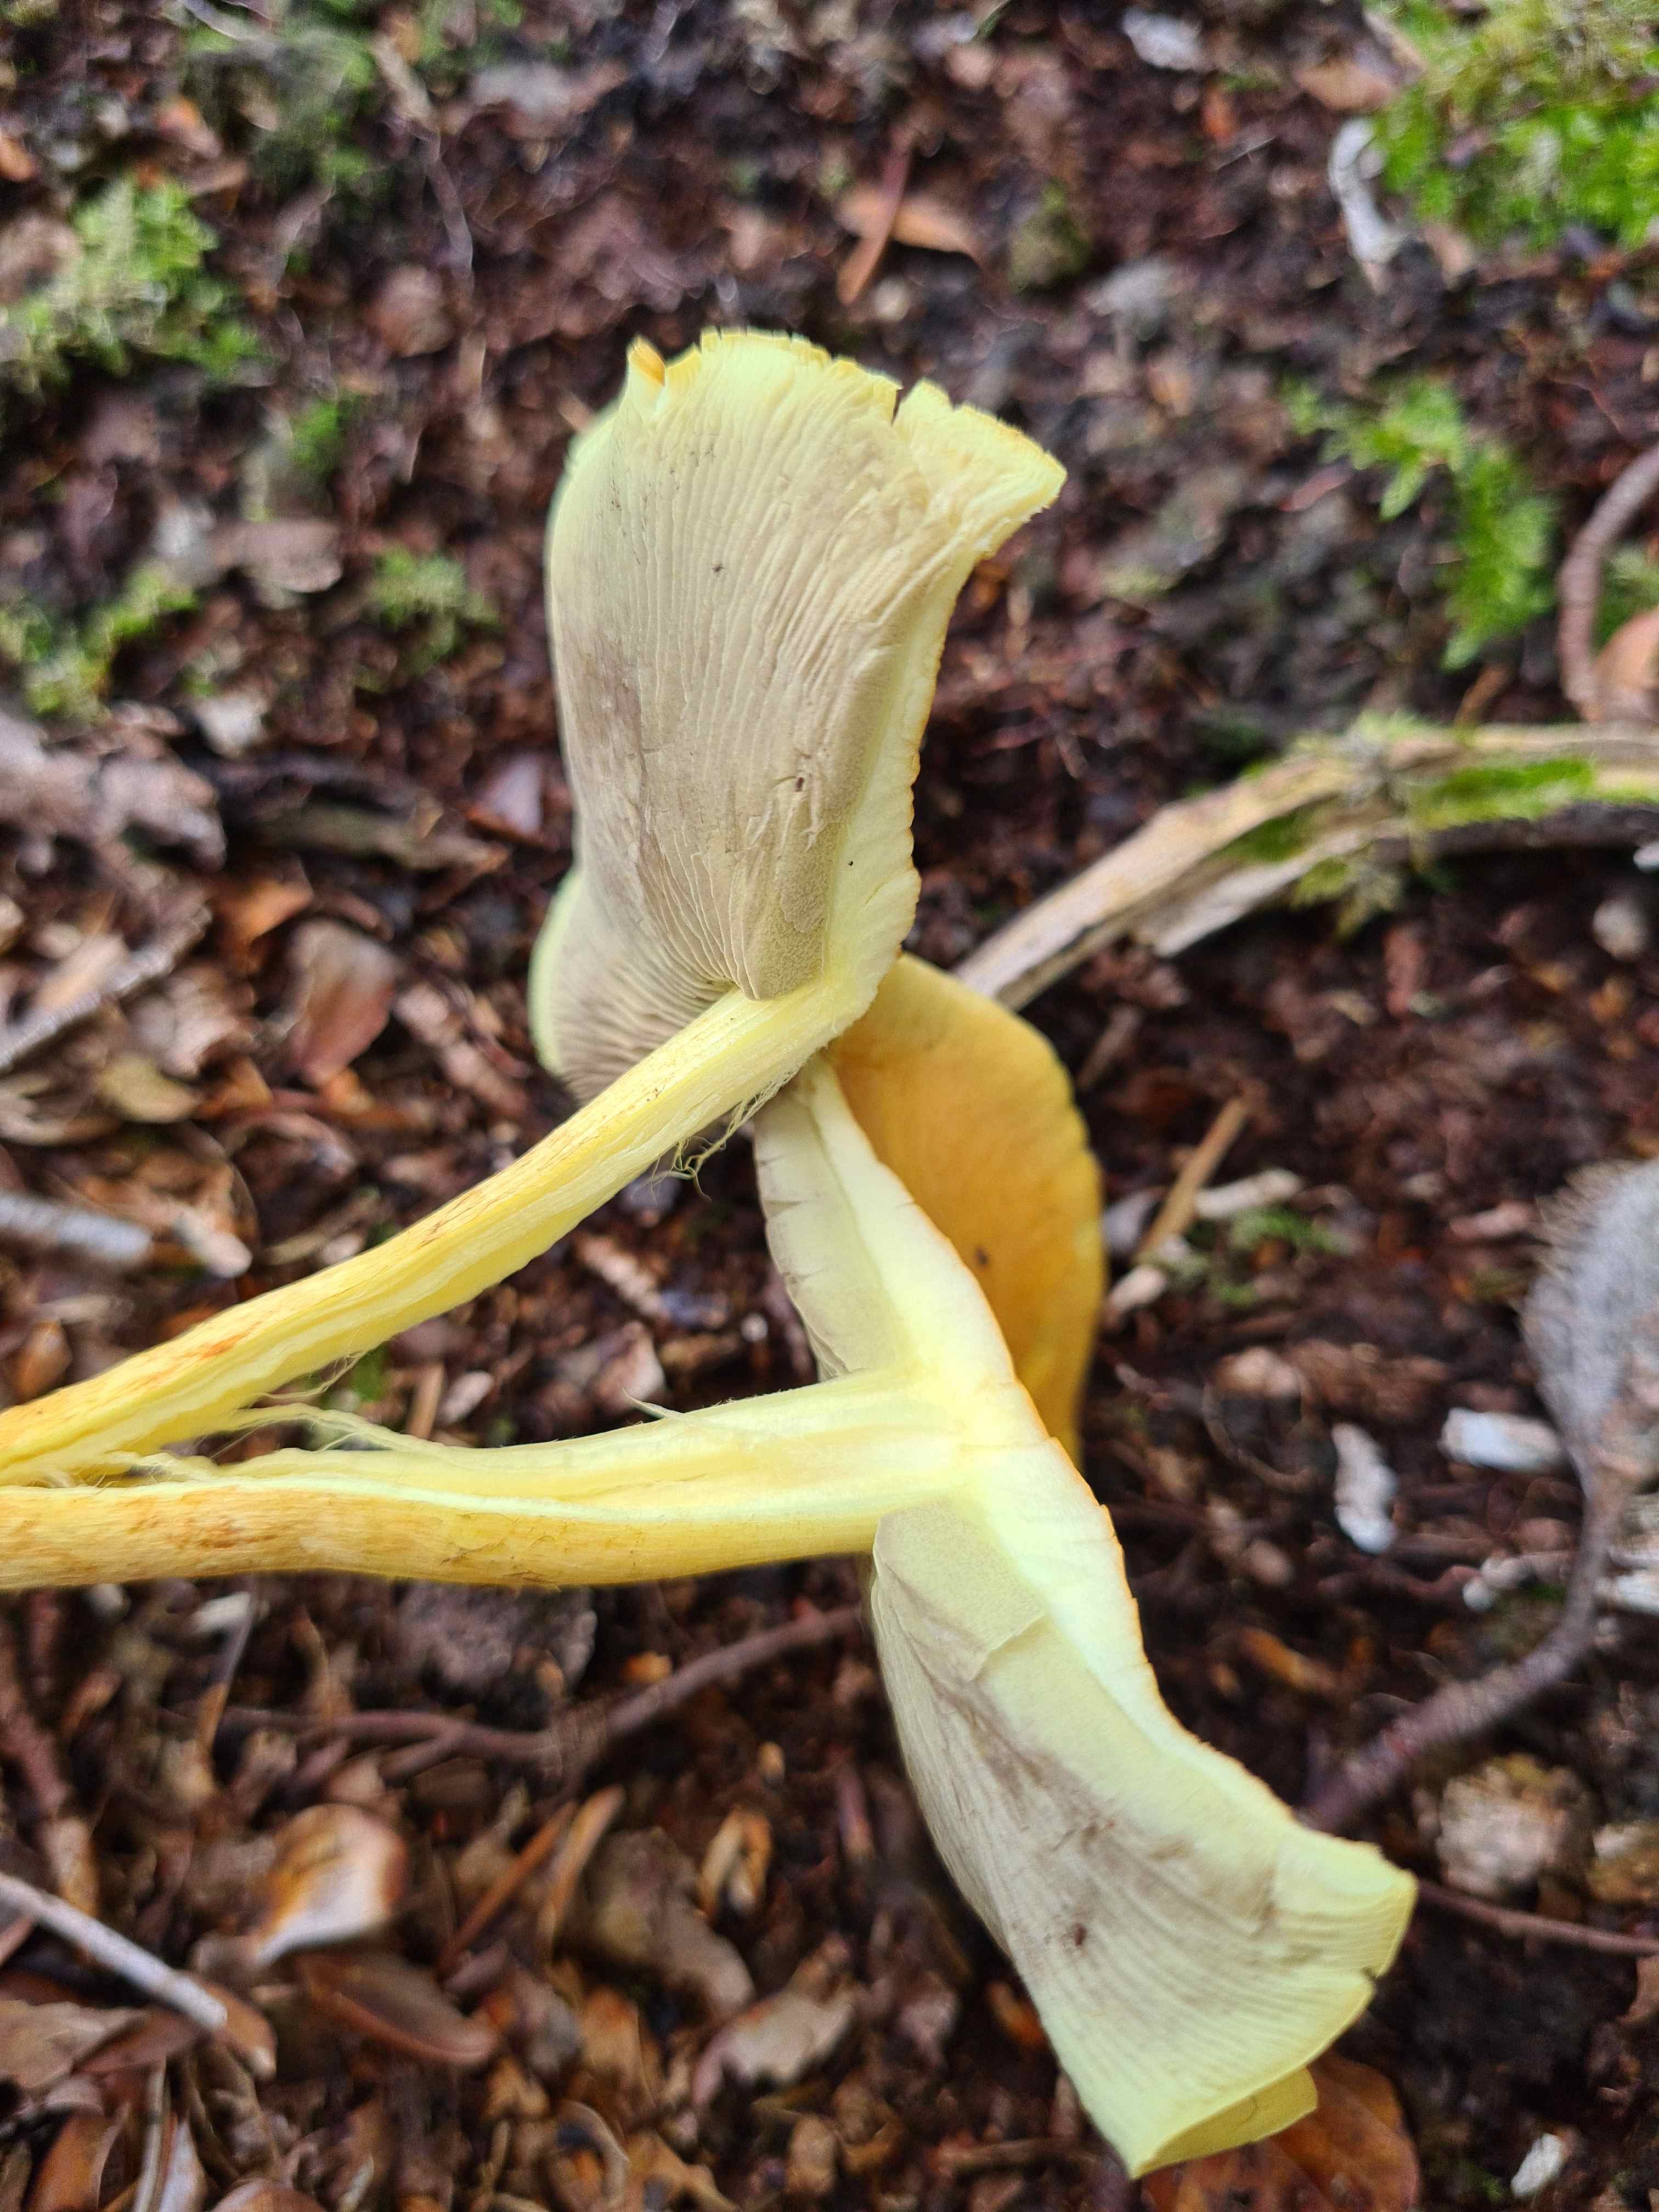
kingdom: Fungi
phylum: Basidiomycota
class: Agaricomycetes
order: Agaricales
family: Strophariaceae
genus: Hypholoma
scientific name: Hypholoma fasciculare
